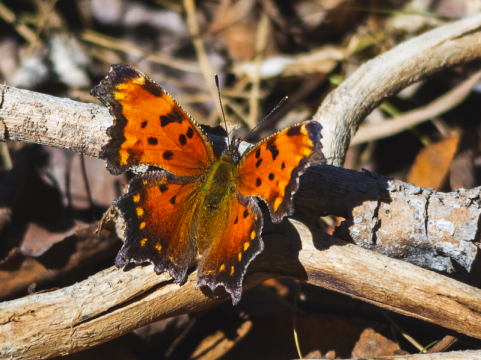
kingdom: Animalia
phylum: Arthropoda
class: Insecta
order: Lepidoptera
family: Nymphalidae
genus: Polygonia
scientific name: Polygonia progne
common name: Gray Comma
